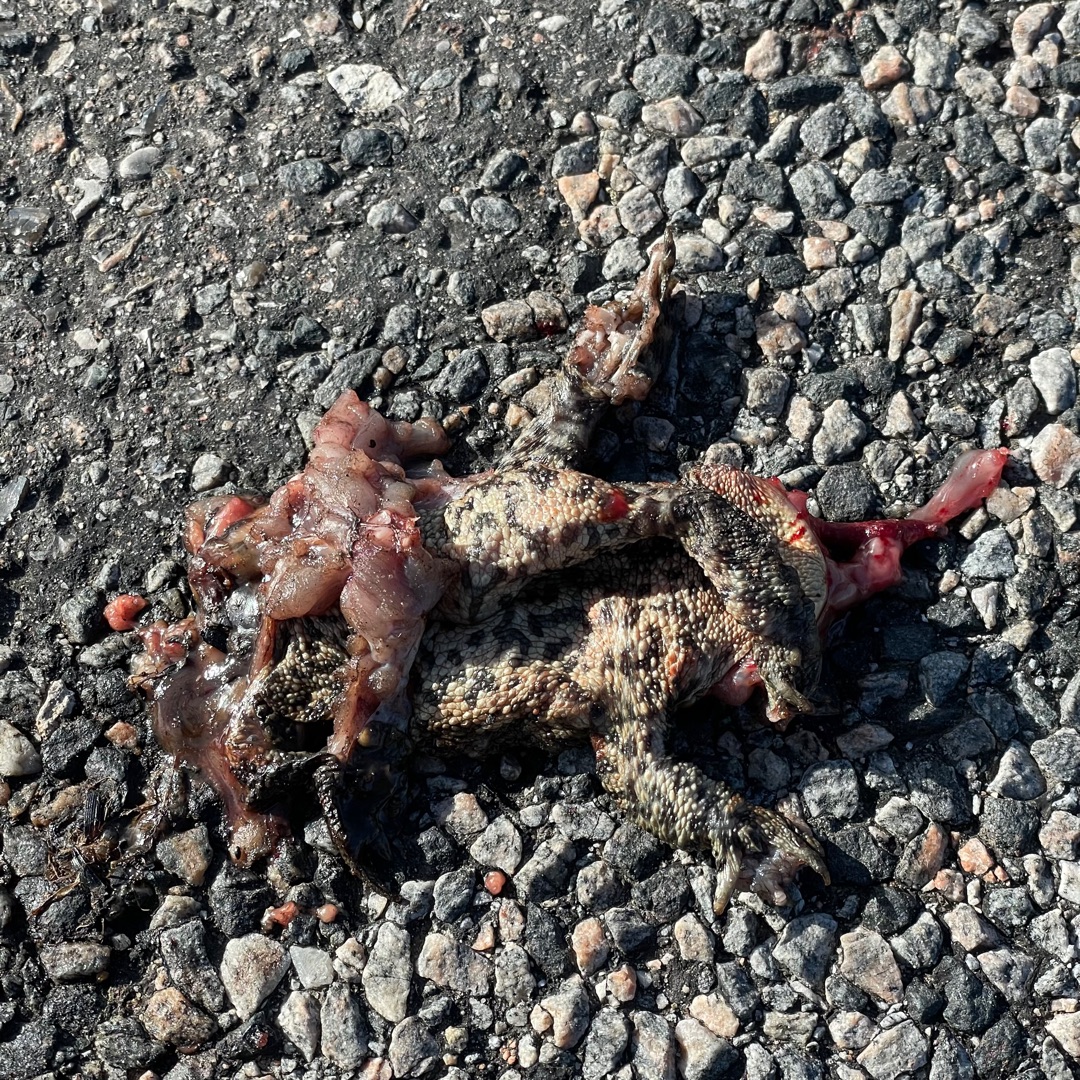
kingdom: Animalia
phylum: Chordata
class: Amphibia
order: Anura
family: Bufonidae
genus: Bufo
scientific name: Bufo bufo
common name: Skrubtudse
